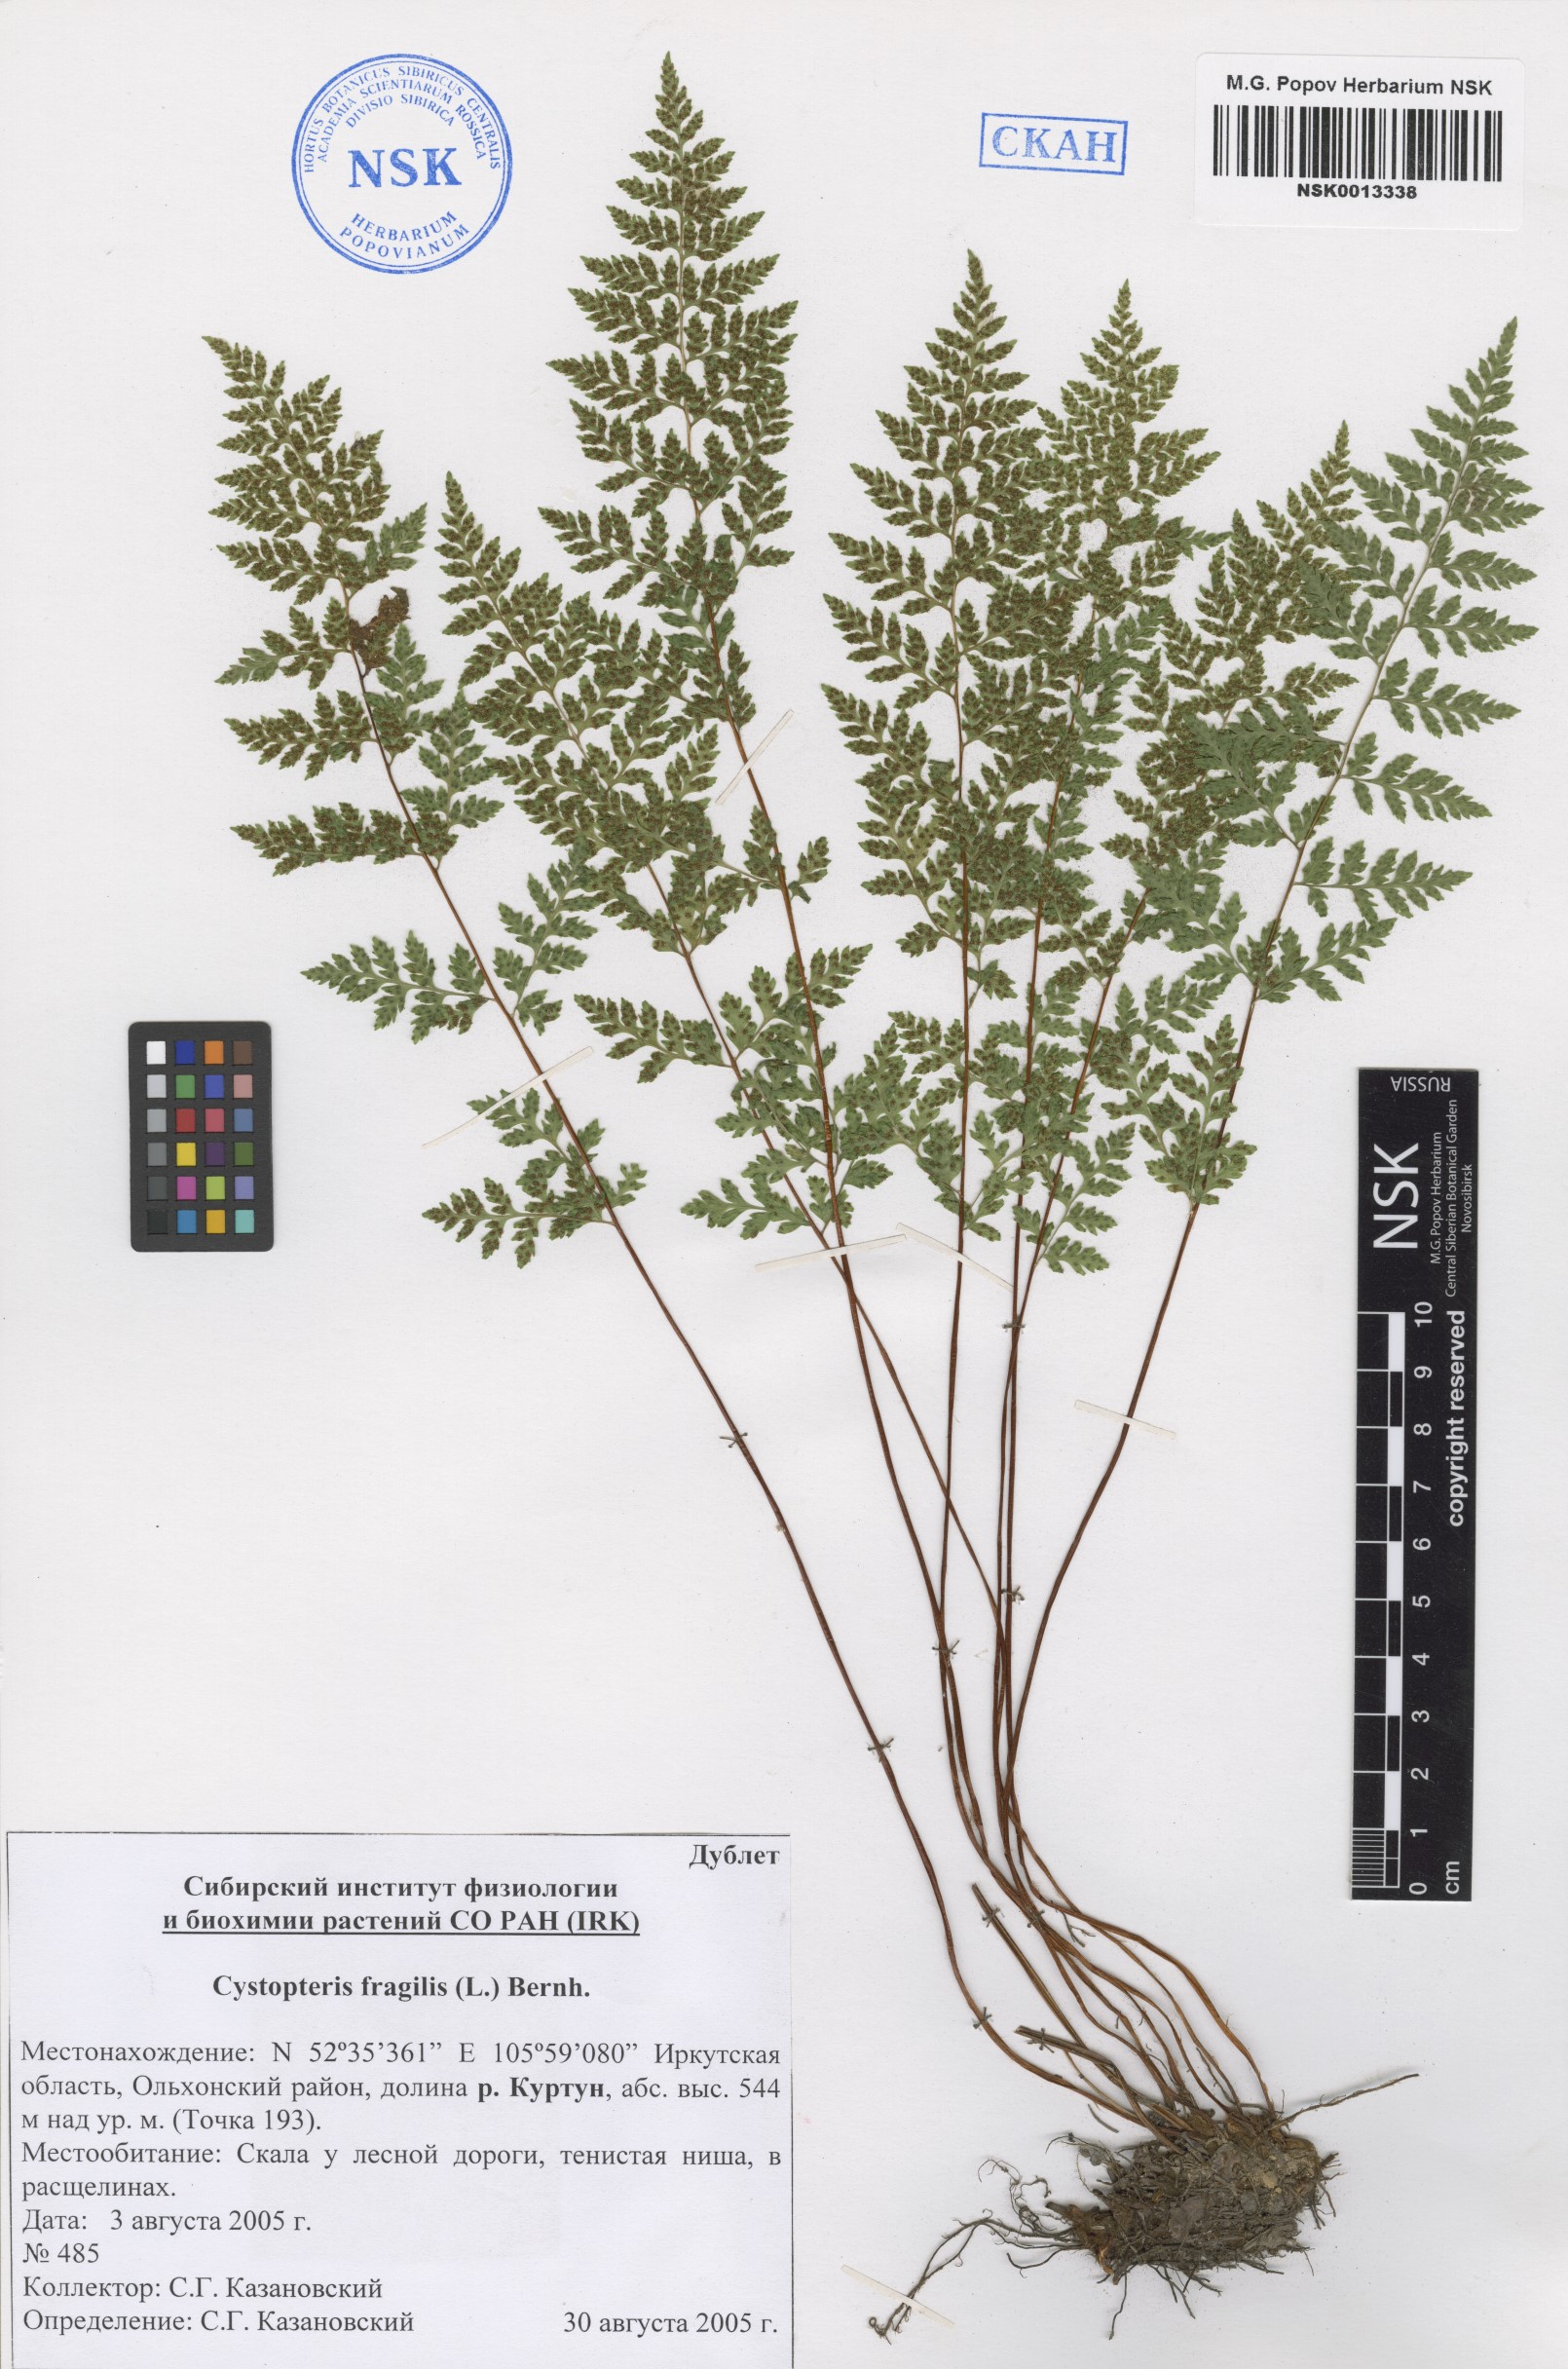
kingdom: Plantae
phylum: Tracheophyta
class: Polypodiopsida
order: Polypodiales
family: Cystopteridaceae
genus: Cystopteris
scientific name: Cystopteris fragilis
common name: Brittle bladder fern
